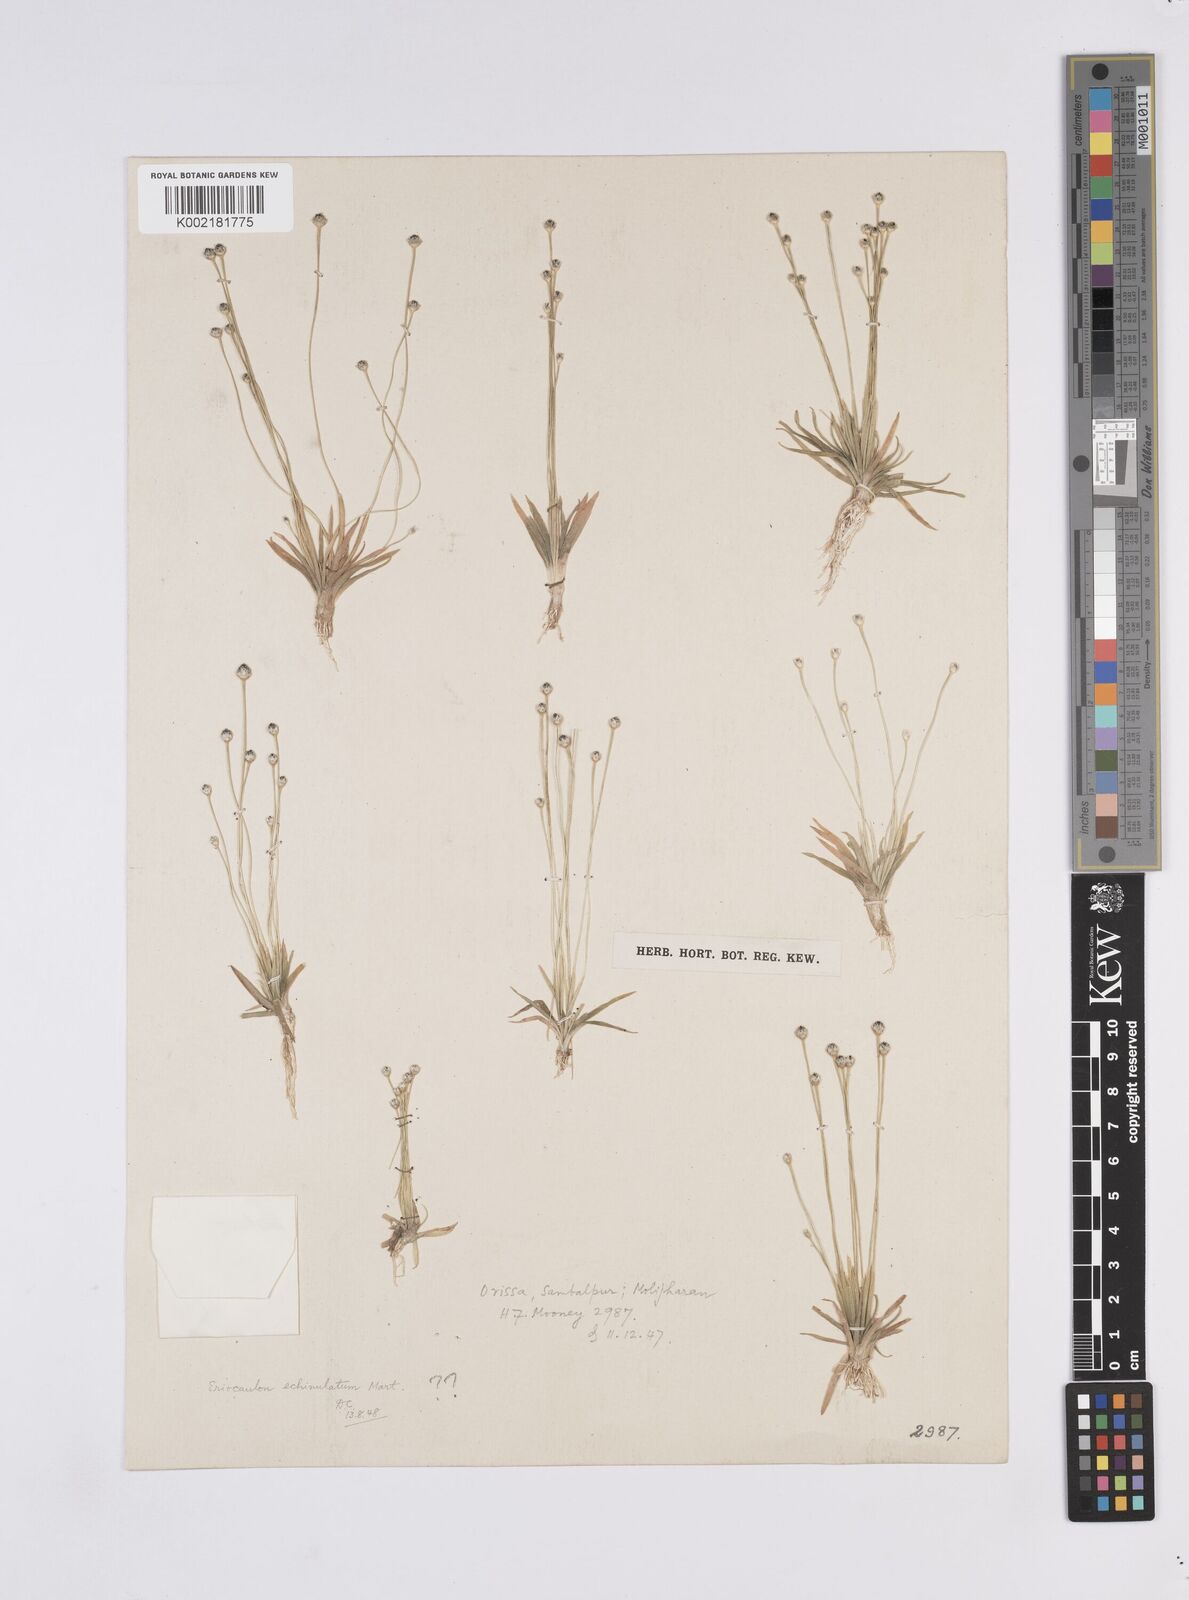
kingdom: Plantae
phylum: Tracheophyta
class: Liliopsida
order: Poales
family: Eriocaulaceae
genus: Eriocaulon
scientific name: Eriocaulon echinulatum
